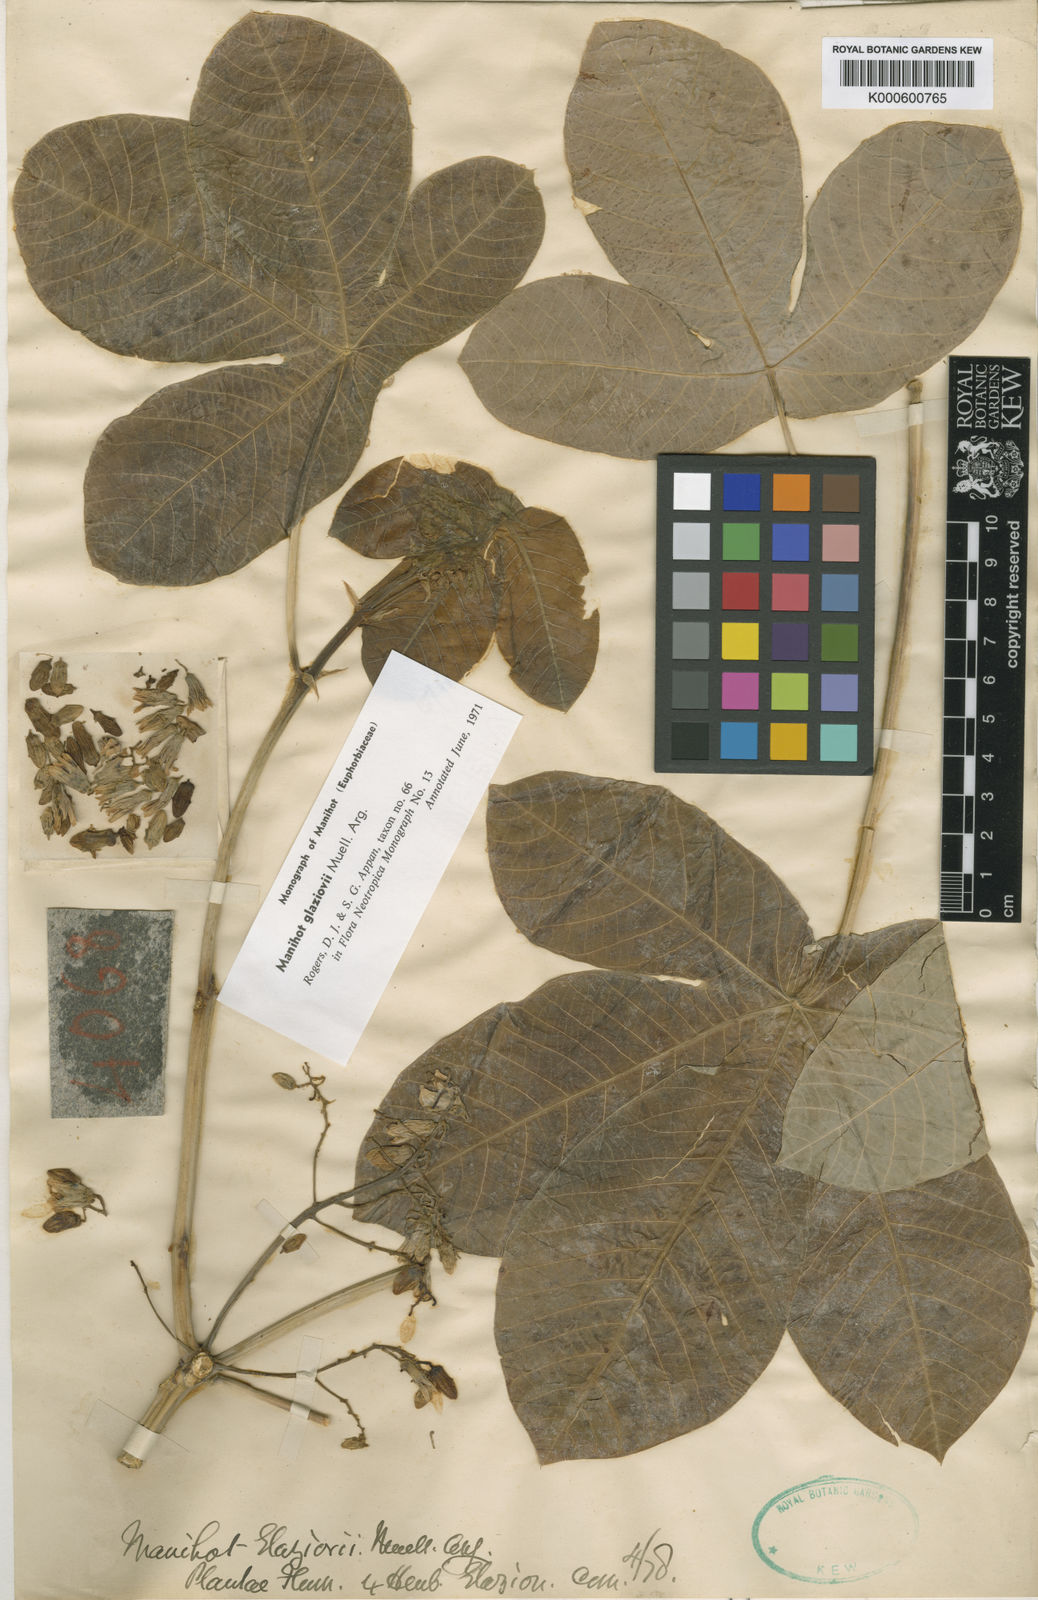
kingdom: Plantae
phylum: Tracheophyta
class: Magnoliopsida
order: Malpighiales
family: Euphorbiaceae
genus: Manihot
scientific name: Manihot
